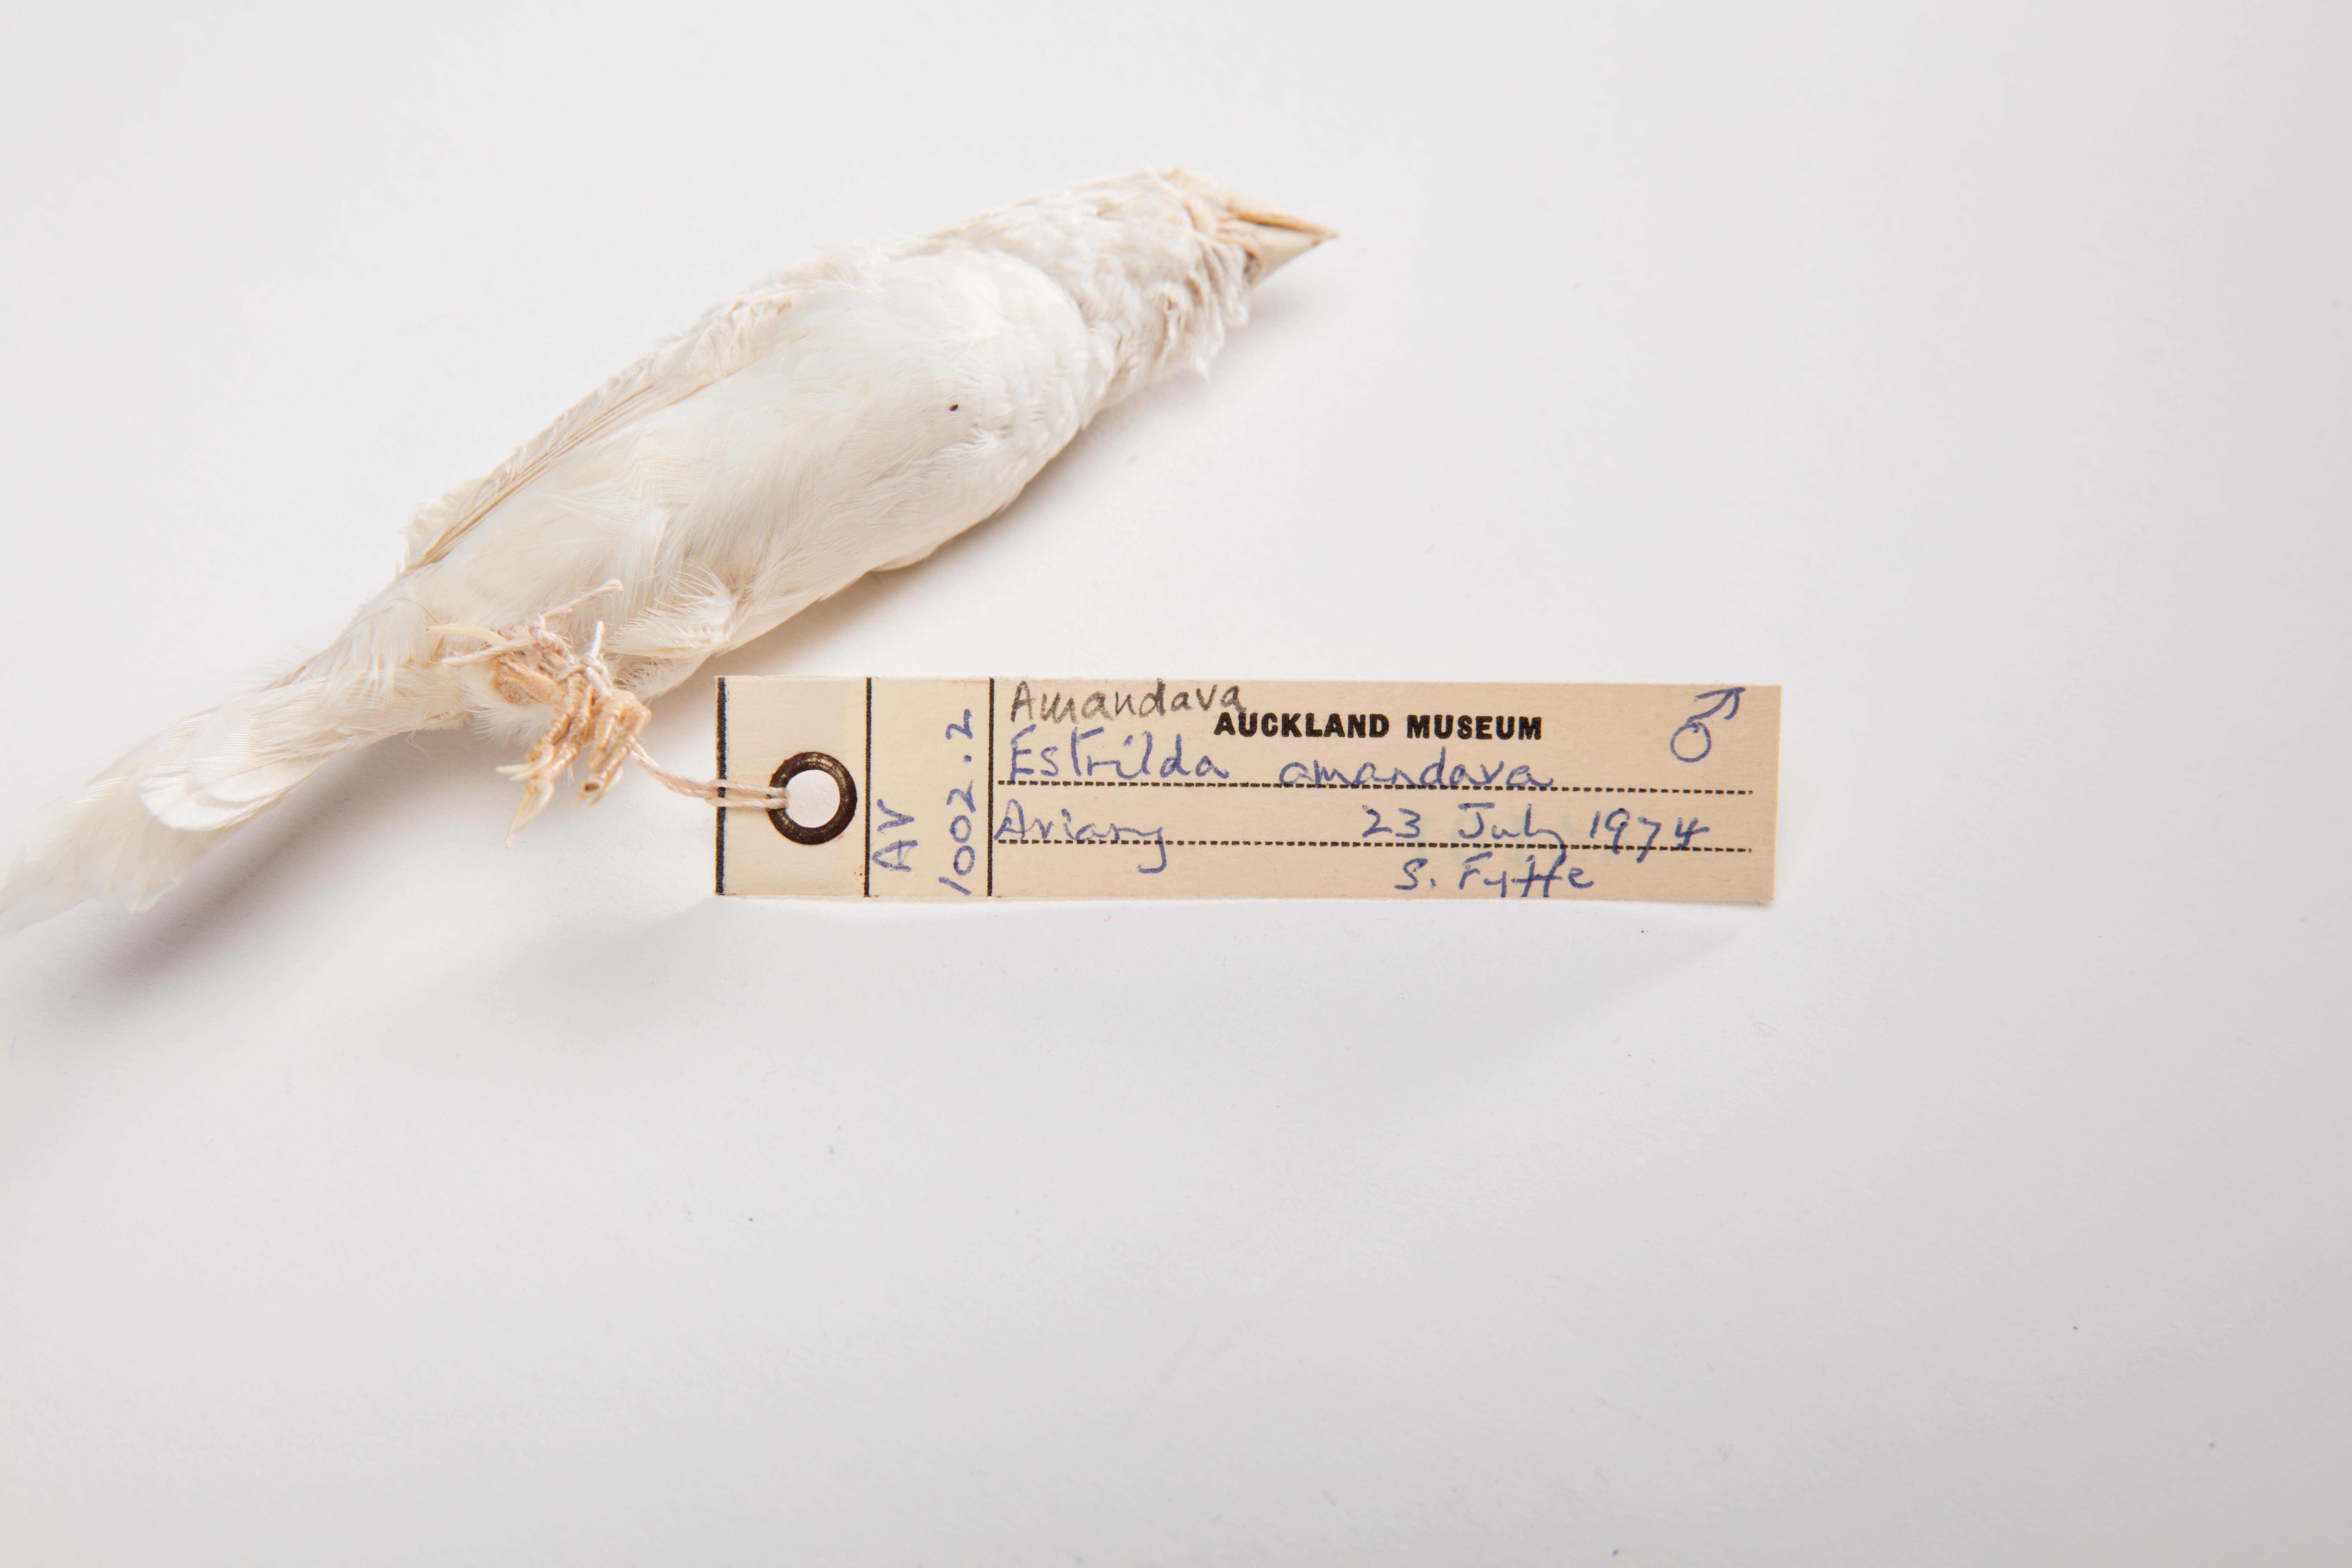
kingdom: Animalia
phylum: Chordata
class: Aves
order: Passeriformes
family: Estrildidae
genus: Amandava
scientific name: Amandava amandava
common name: Red avadavat
